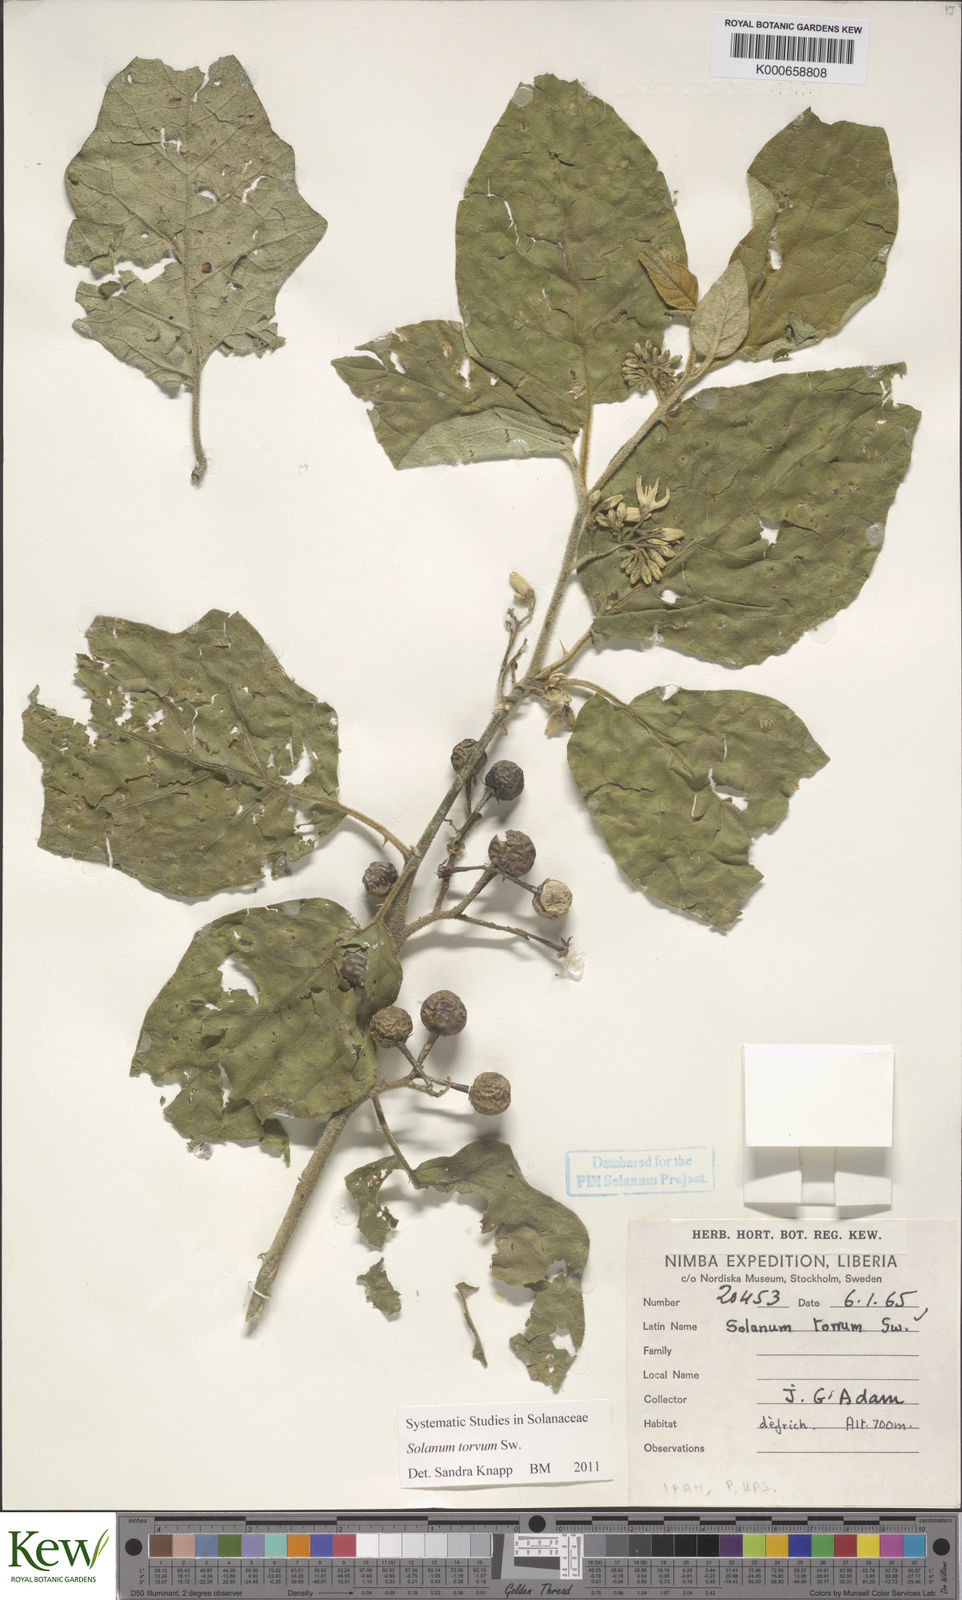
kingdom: Plantae
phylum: Tracheophyta
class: Magnoliopsida
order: Solanales
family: Solanaceae
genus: Solanum
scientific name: Solanum torvum
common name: Turkey berry
